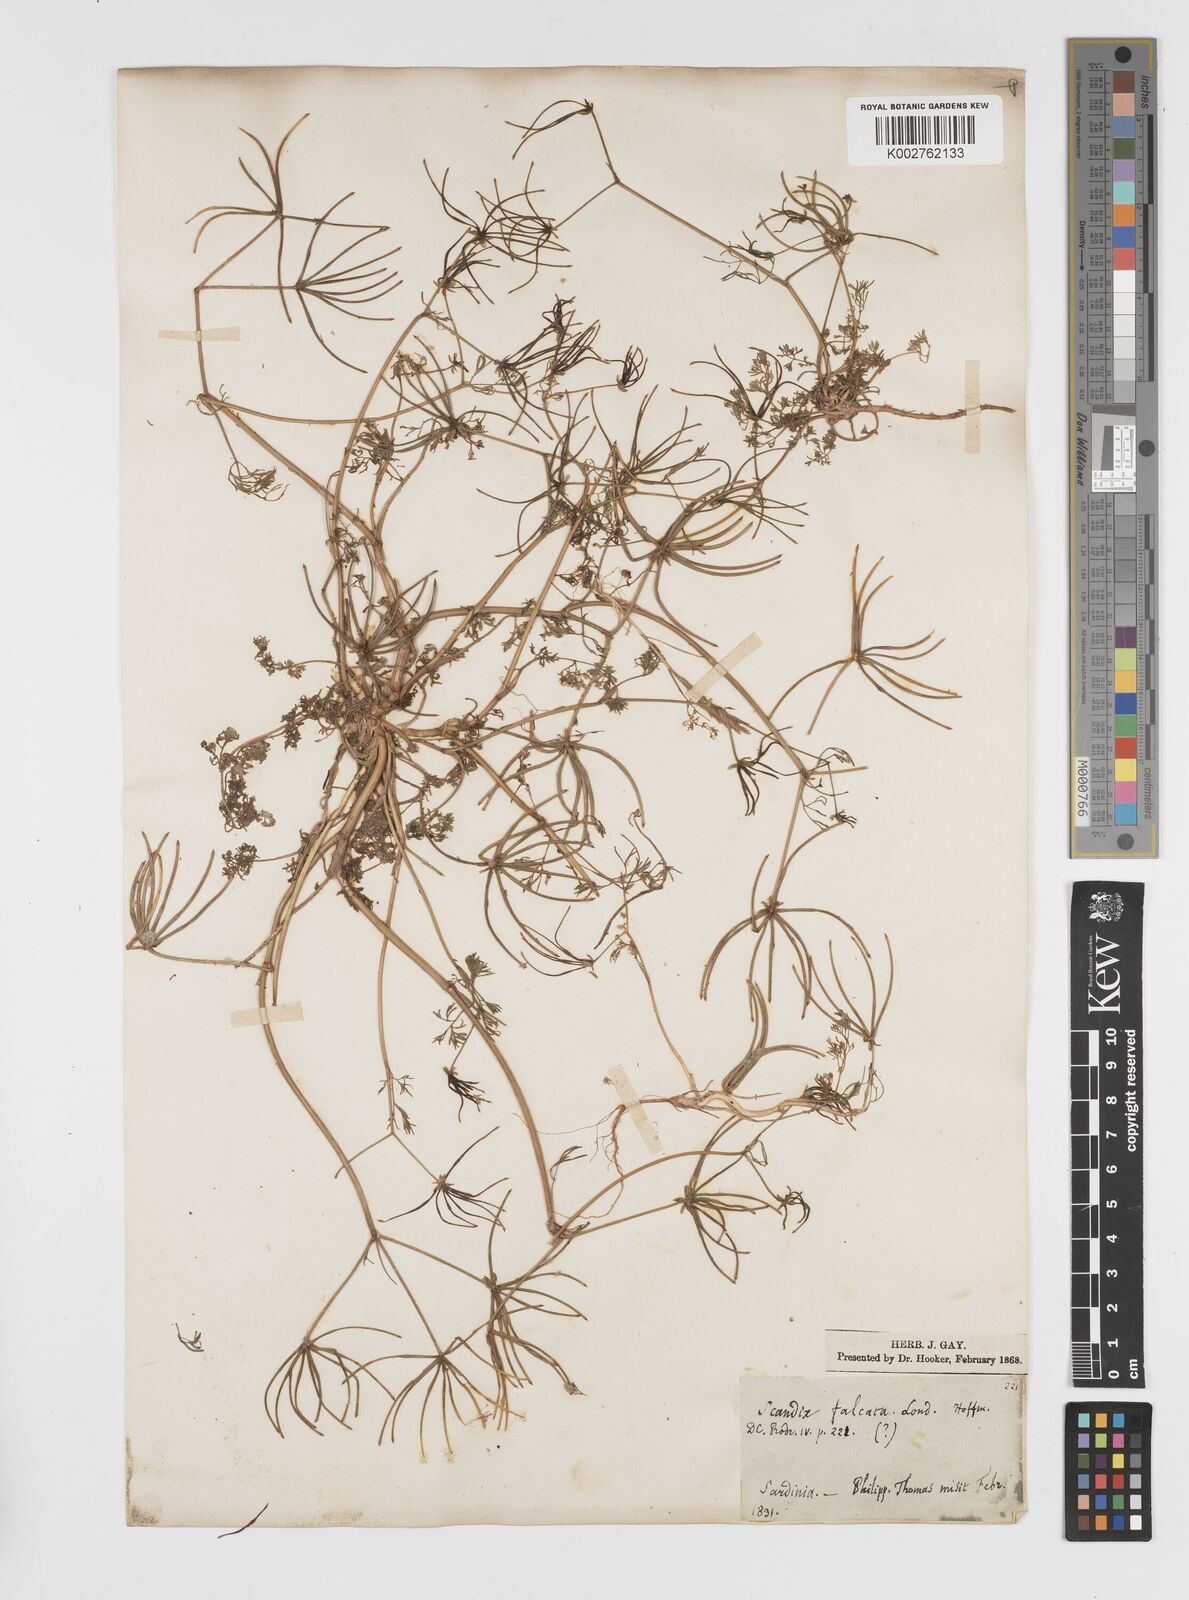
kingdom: Plantae
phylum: Tracheophyta
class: Magnoliopsida
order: Apiales
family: Apiaceae
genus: Scandix
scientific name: Scandix australis
